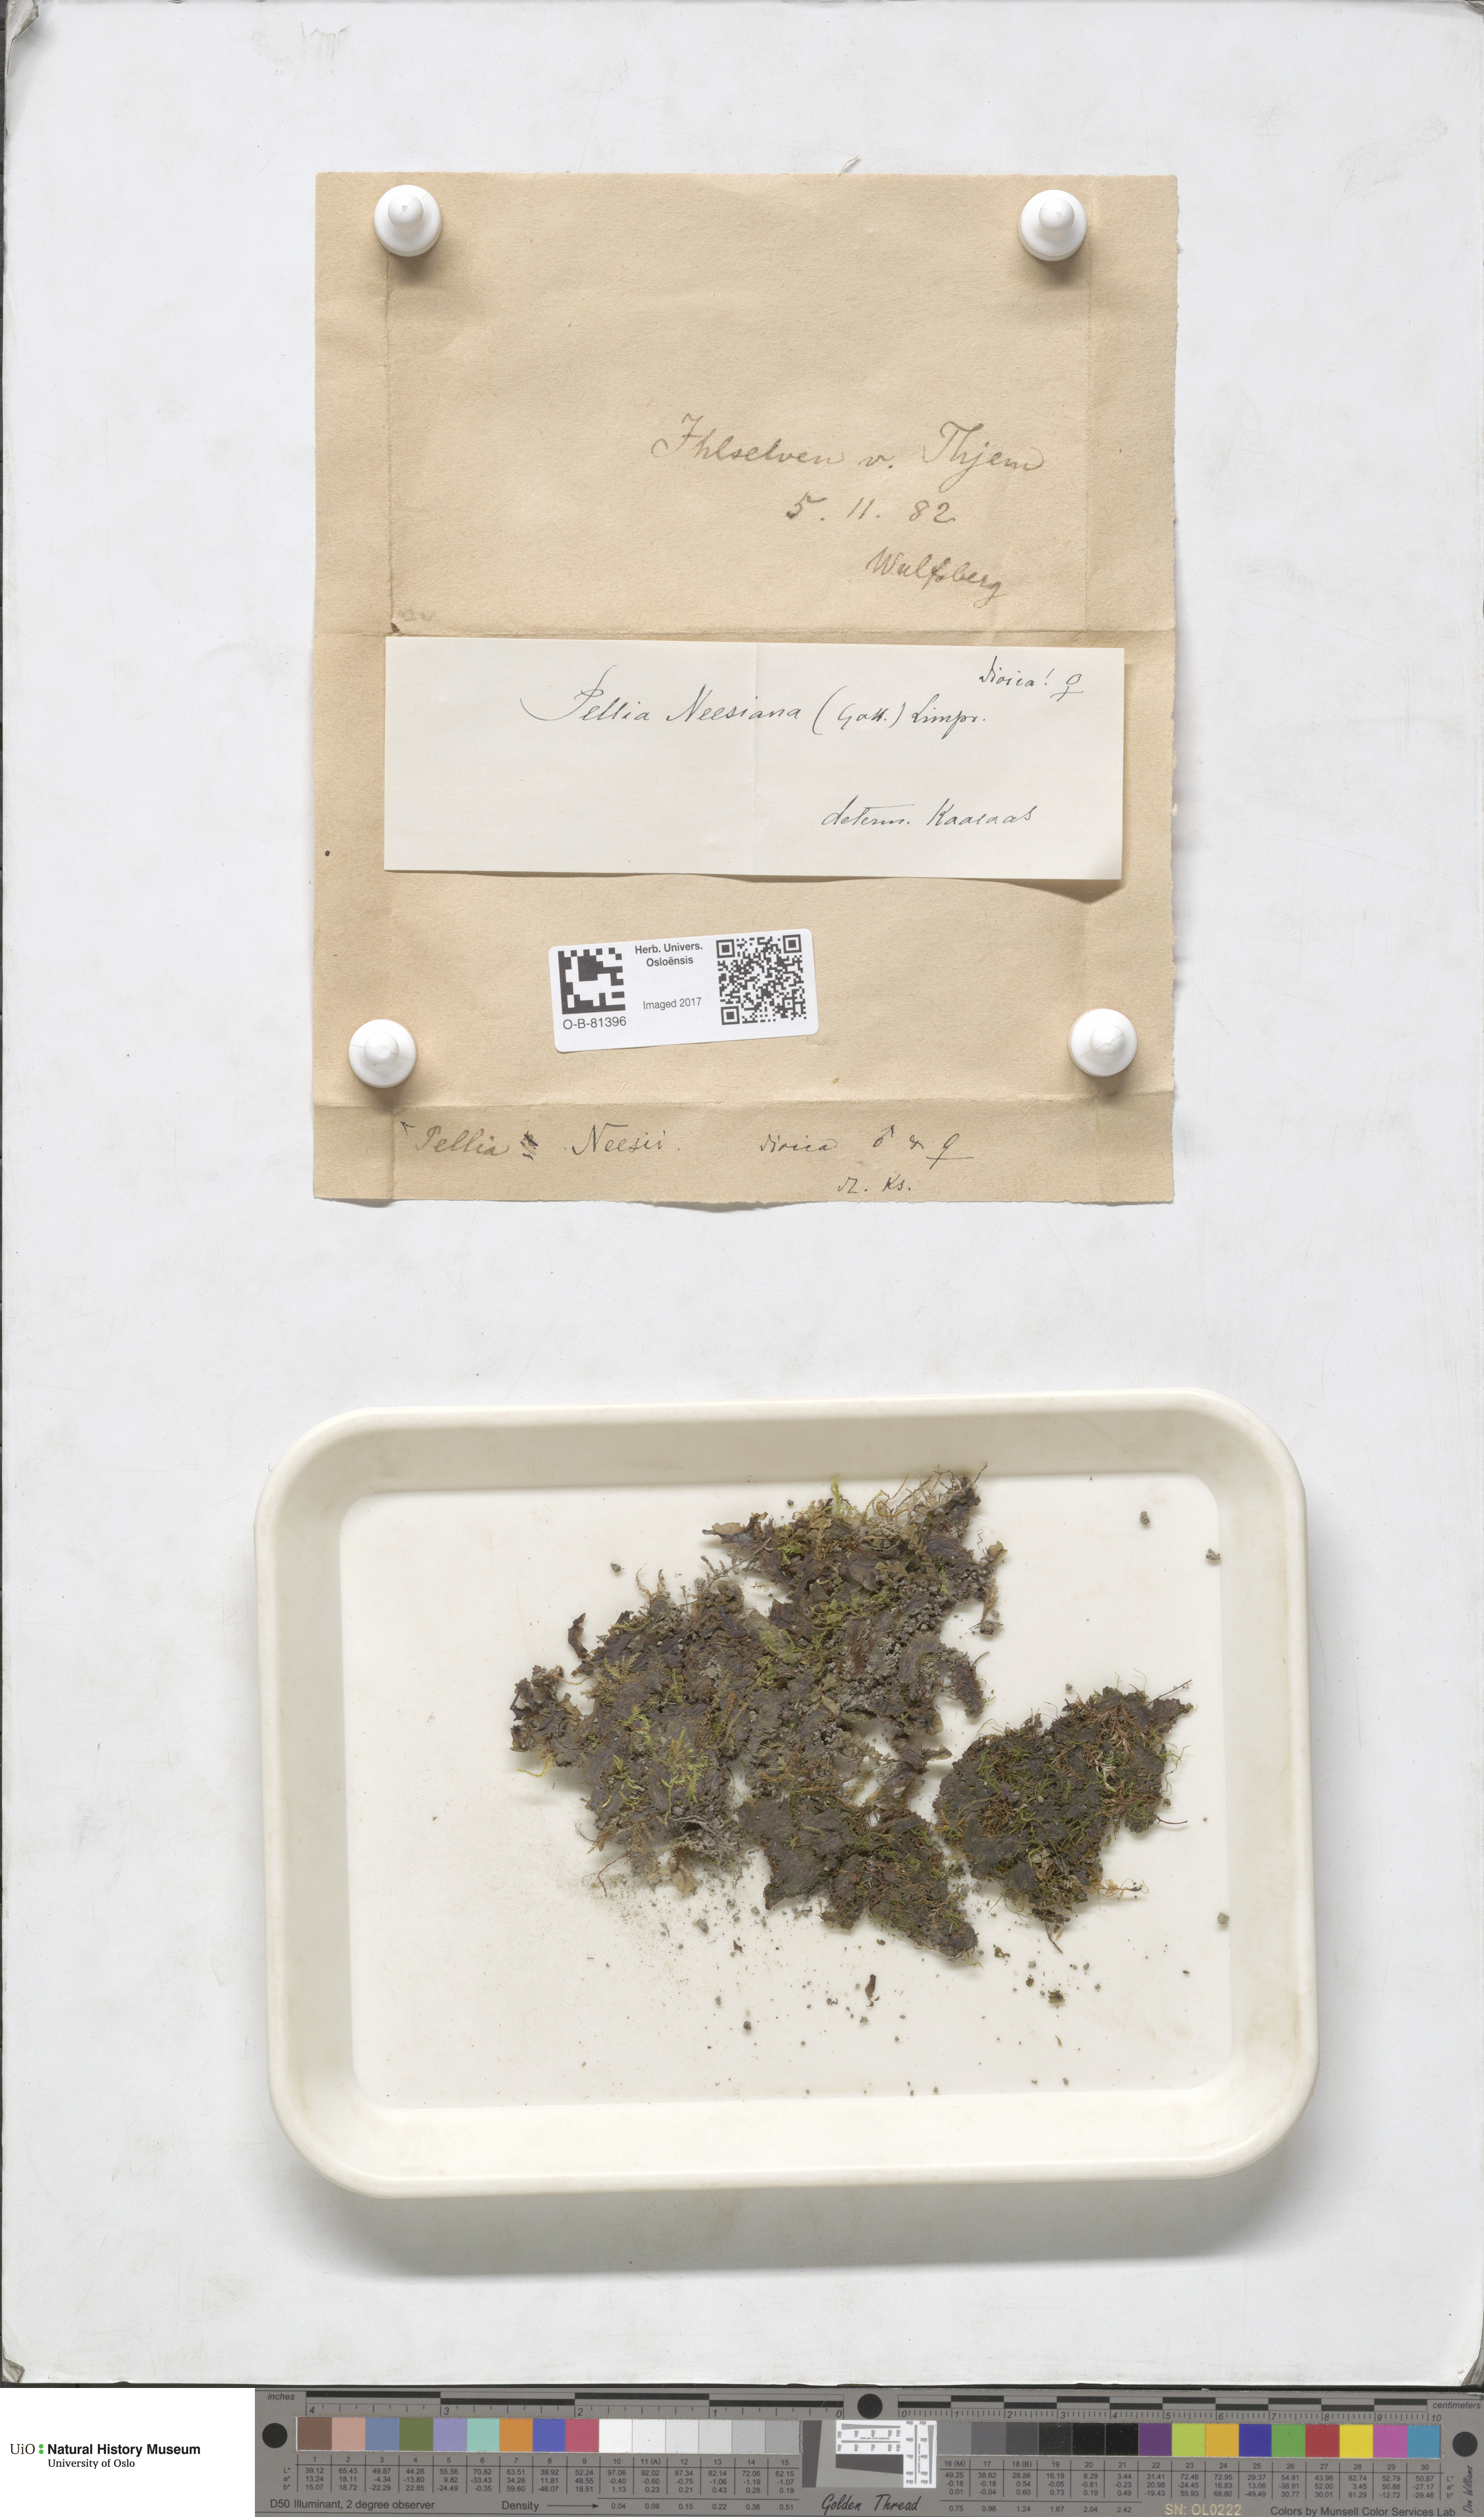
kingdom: Plantae
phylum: Marchantiophyta
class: Jungermanniopsida
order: Pelliales
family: Pelliaceae
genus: Pellia
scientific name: Pellia neesiana
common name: Nees  pellia
